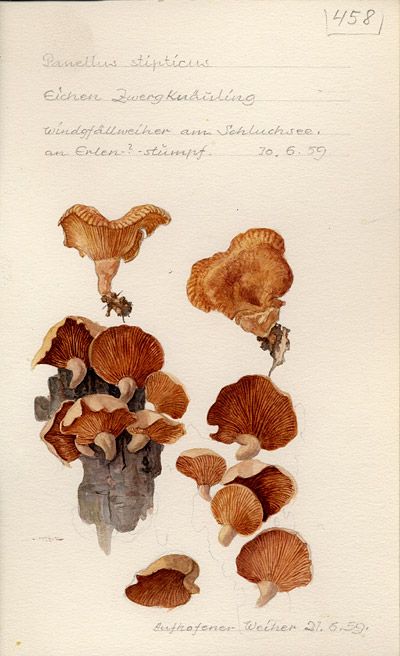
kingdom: Fungi
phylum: Basidiomycota
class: Agaricomycetes
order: Agaricales
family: Mycenaceae
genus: Panellus
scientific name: Panellus stipticus
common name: Bitter oysterling
